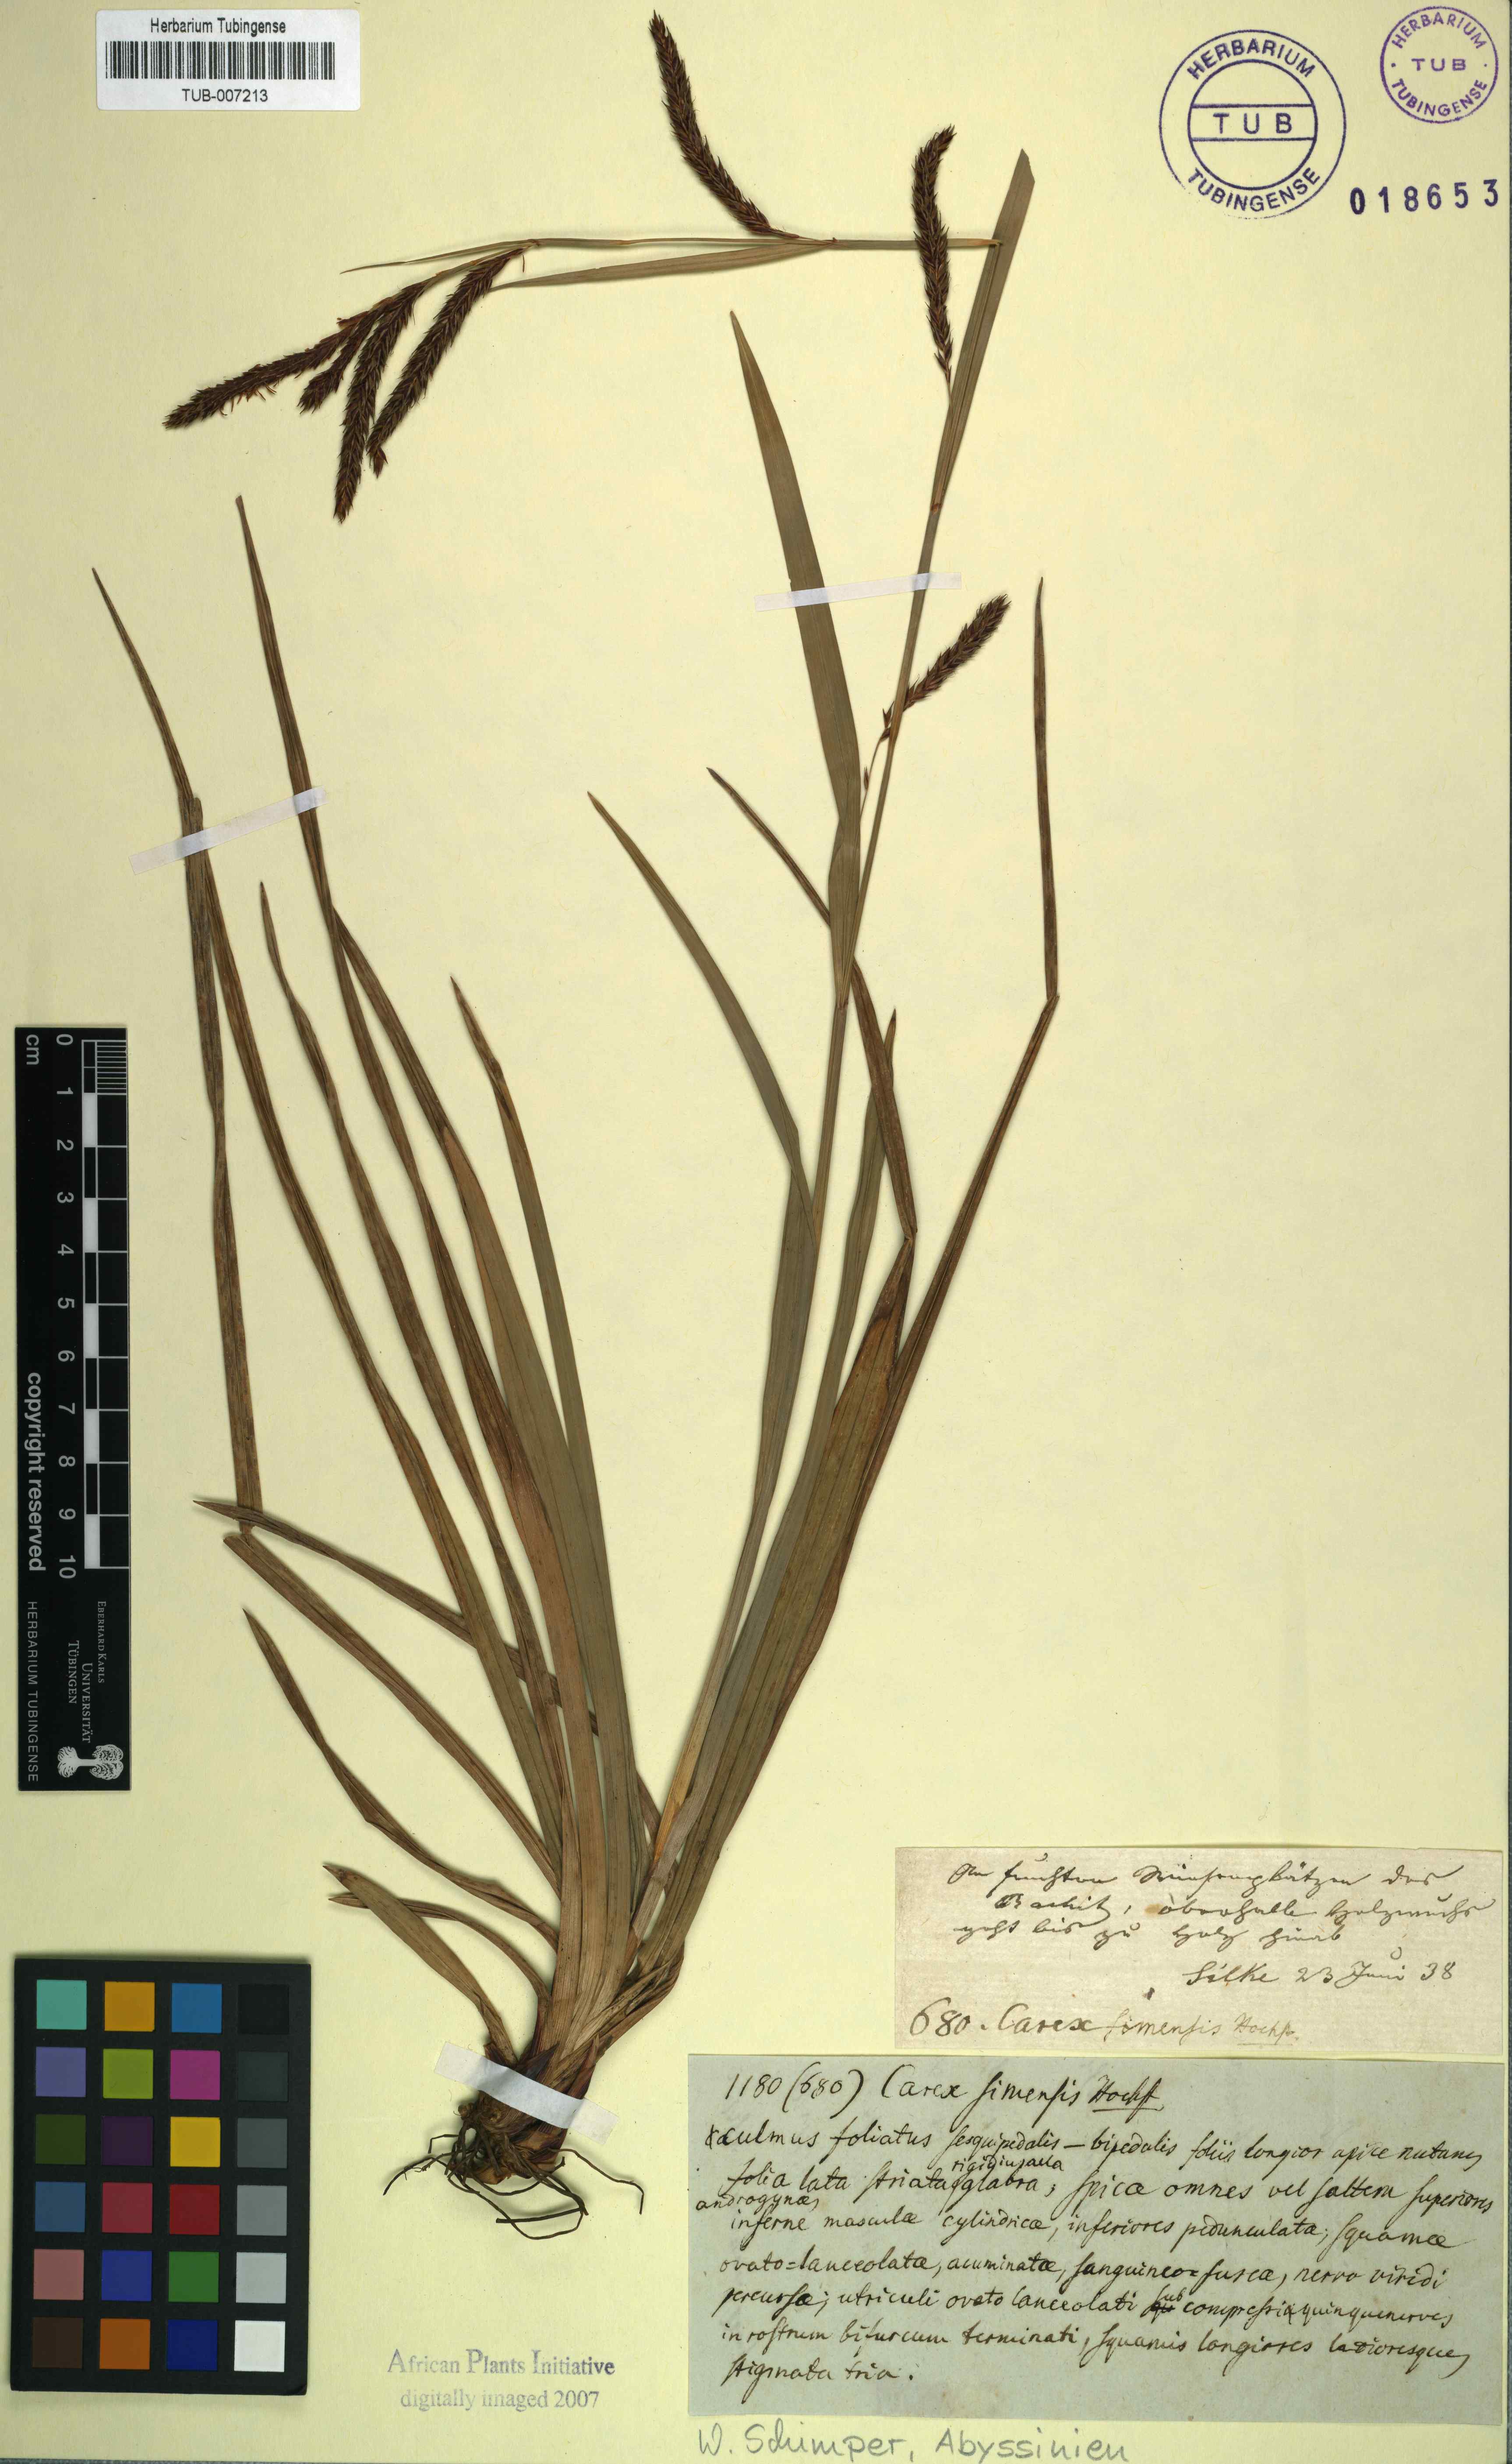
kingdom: Plantae
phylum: Tracheophyta
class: Liliopsida
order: Poales
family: Cyperaceae
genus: Carex
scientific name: Carex simensis
